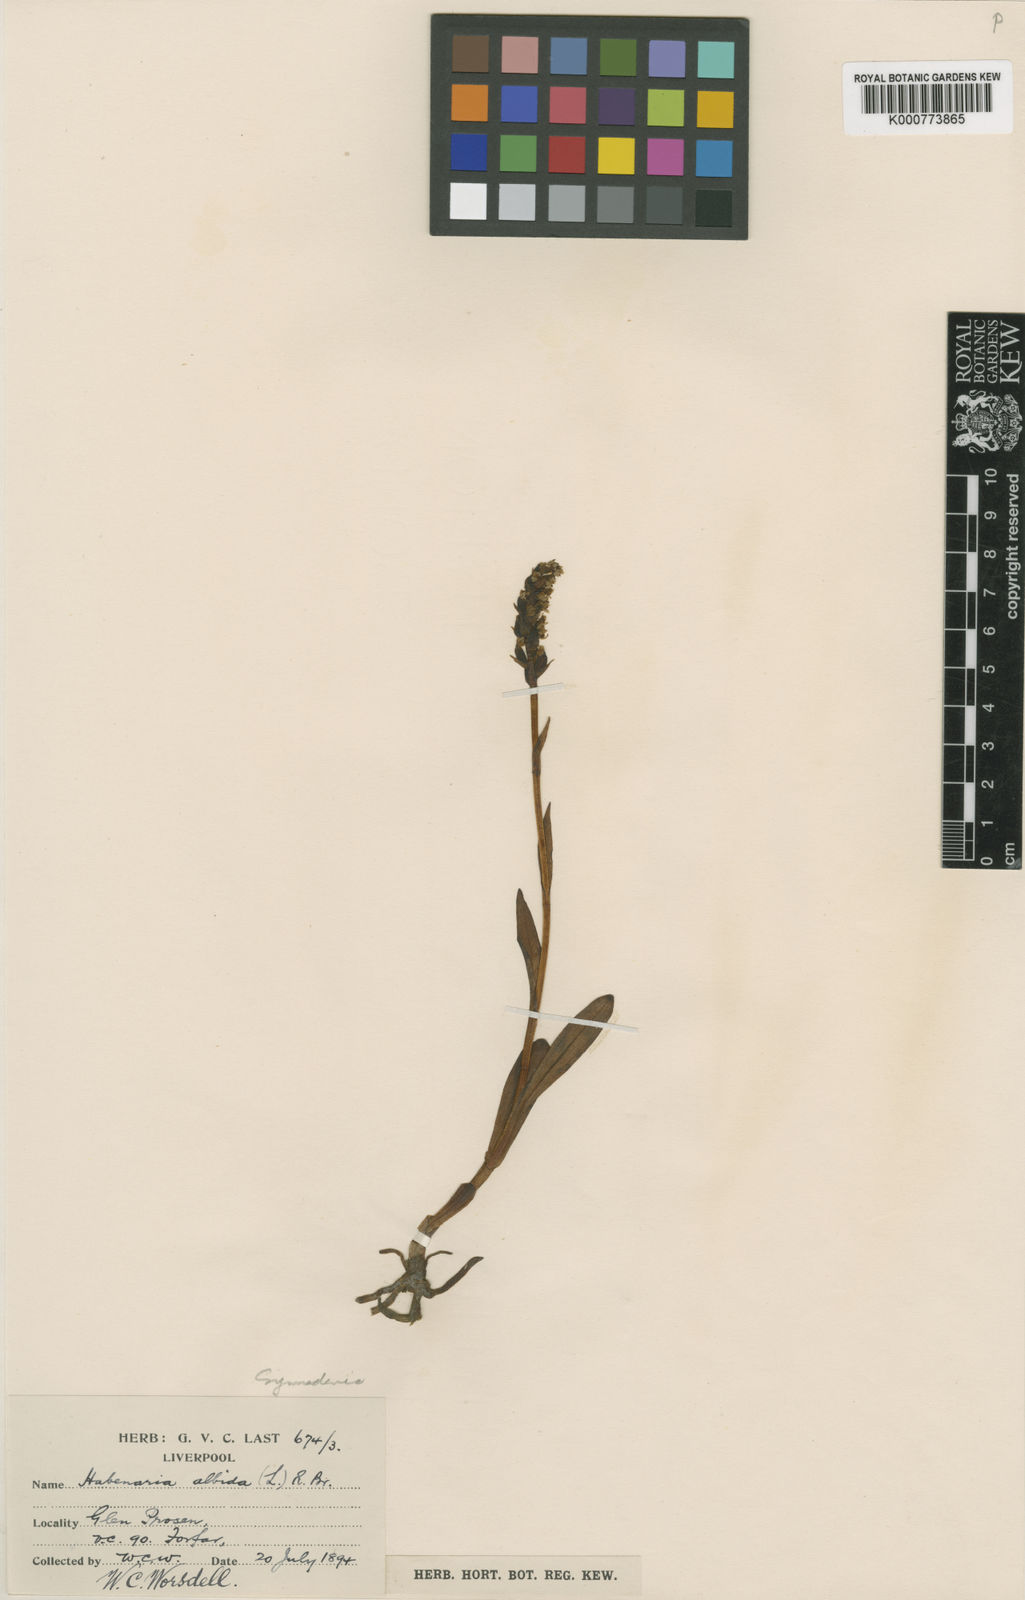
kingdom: Plantae
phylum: Tracheophyta
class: Liliopsida
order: Asparagales
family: Orchidaceae
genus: Pseudorchis
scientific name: Pseudorchis
